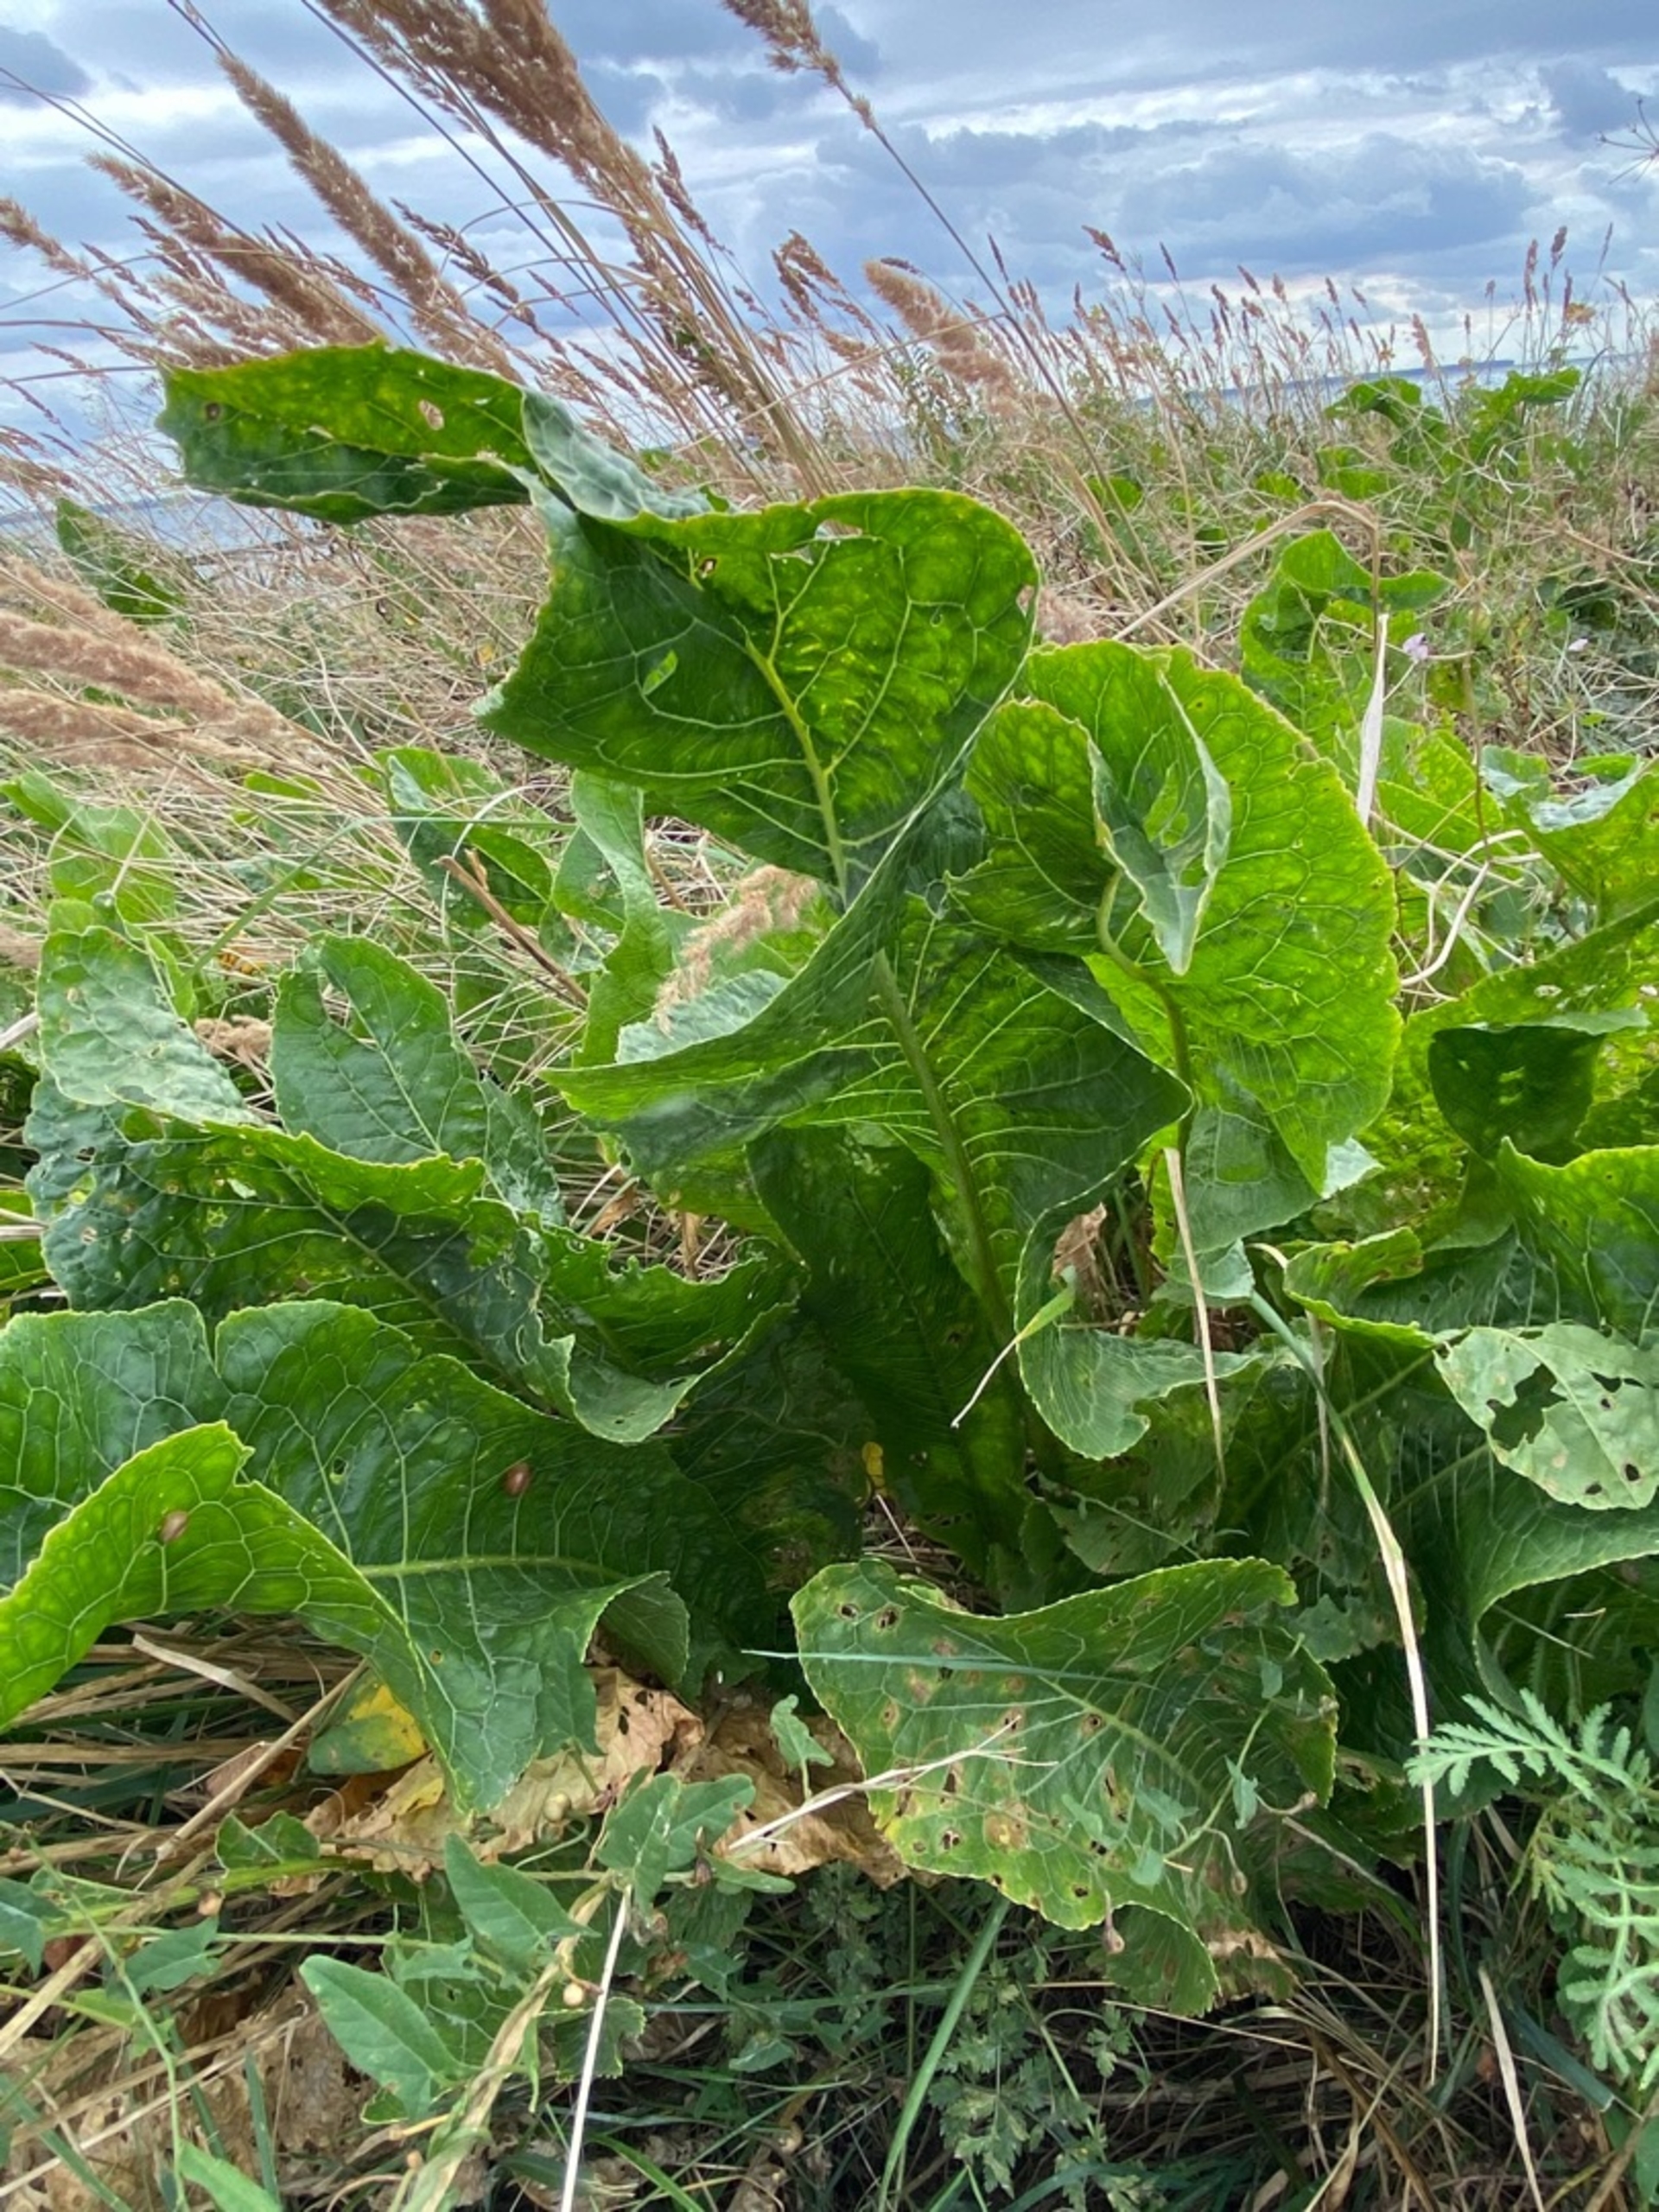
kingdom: Plantae
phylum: Tracheophyta
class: Magnoliopsida
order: Brassicales
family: Brassicaceae
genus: Armoracia
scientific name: Armoracia rusticana
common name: Peberrod
